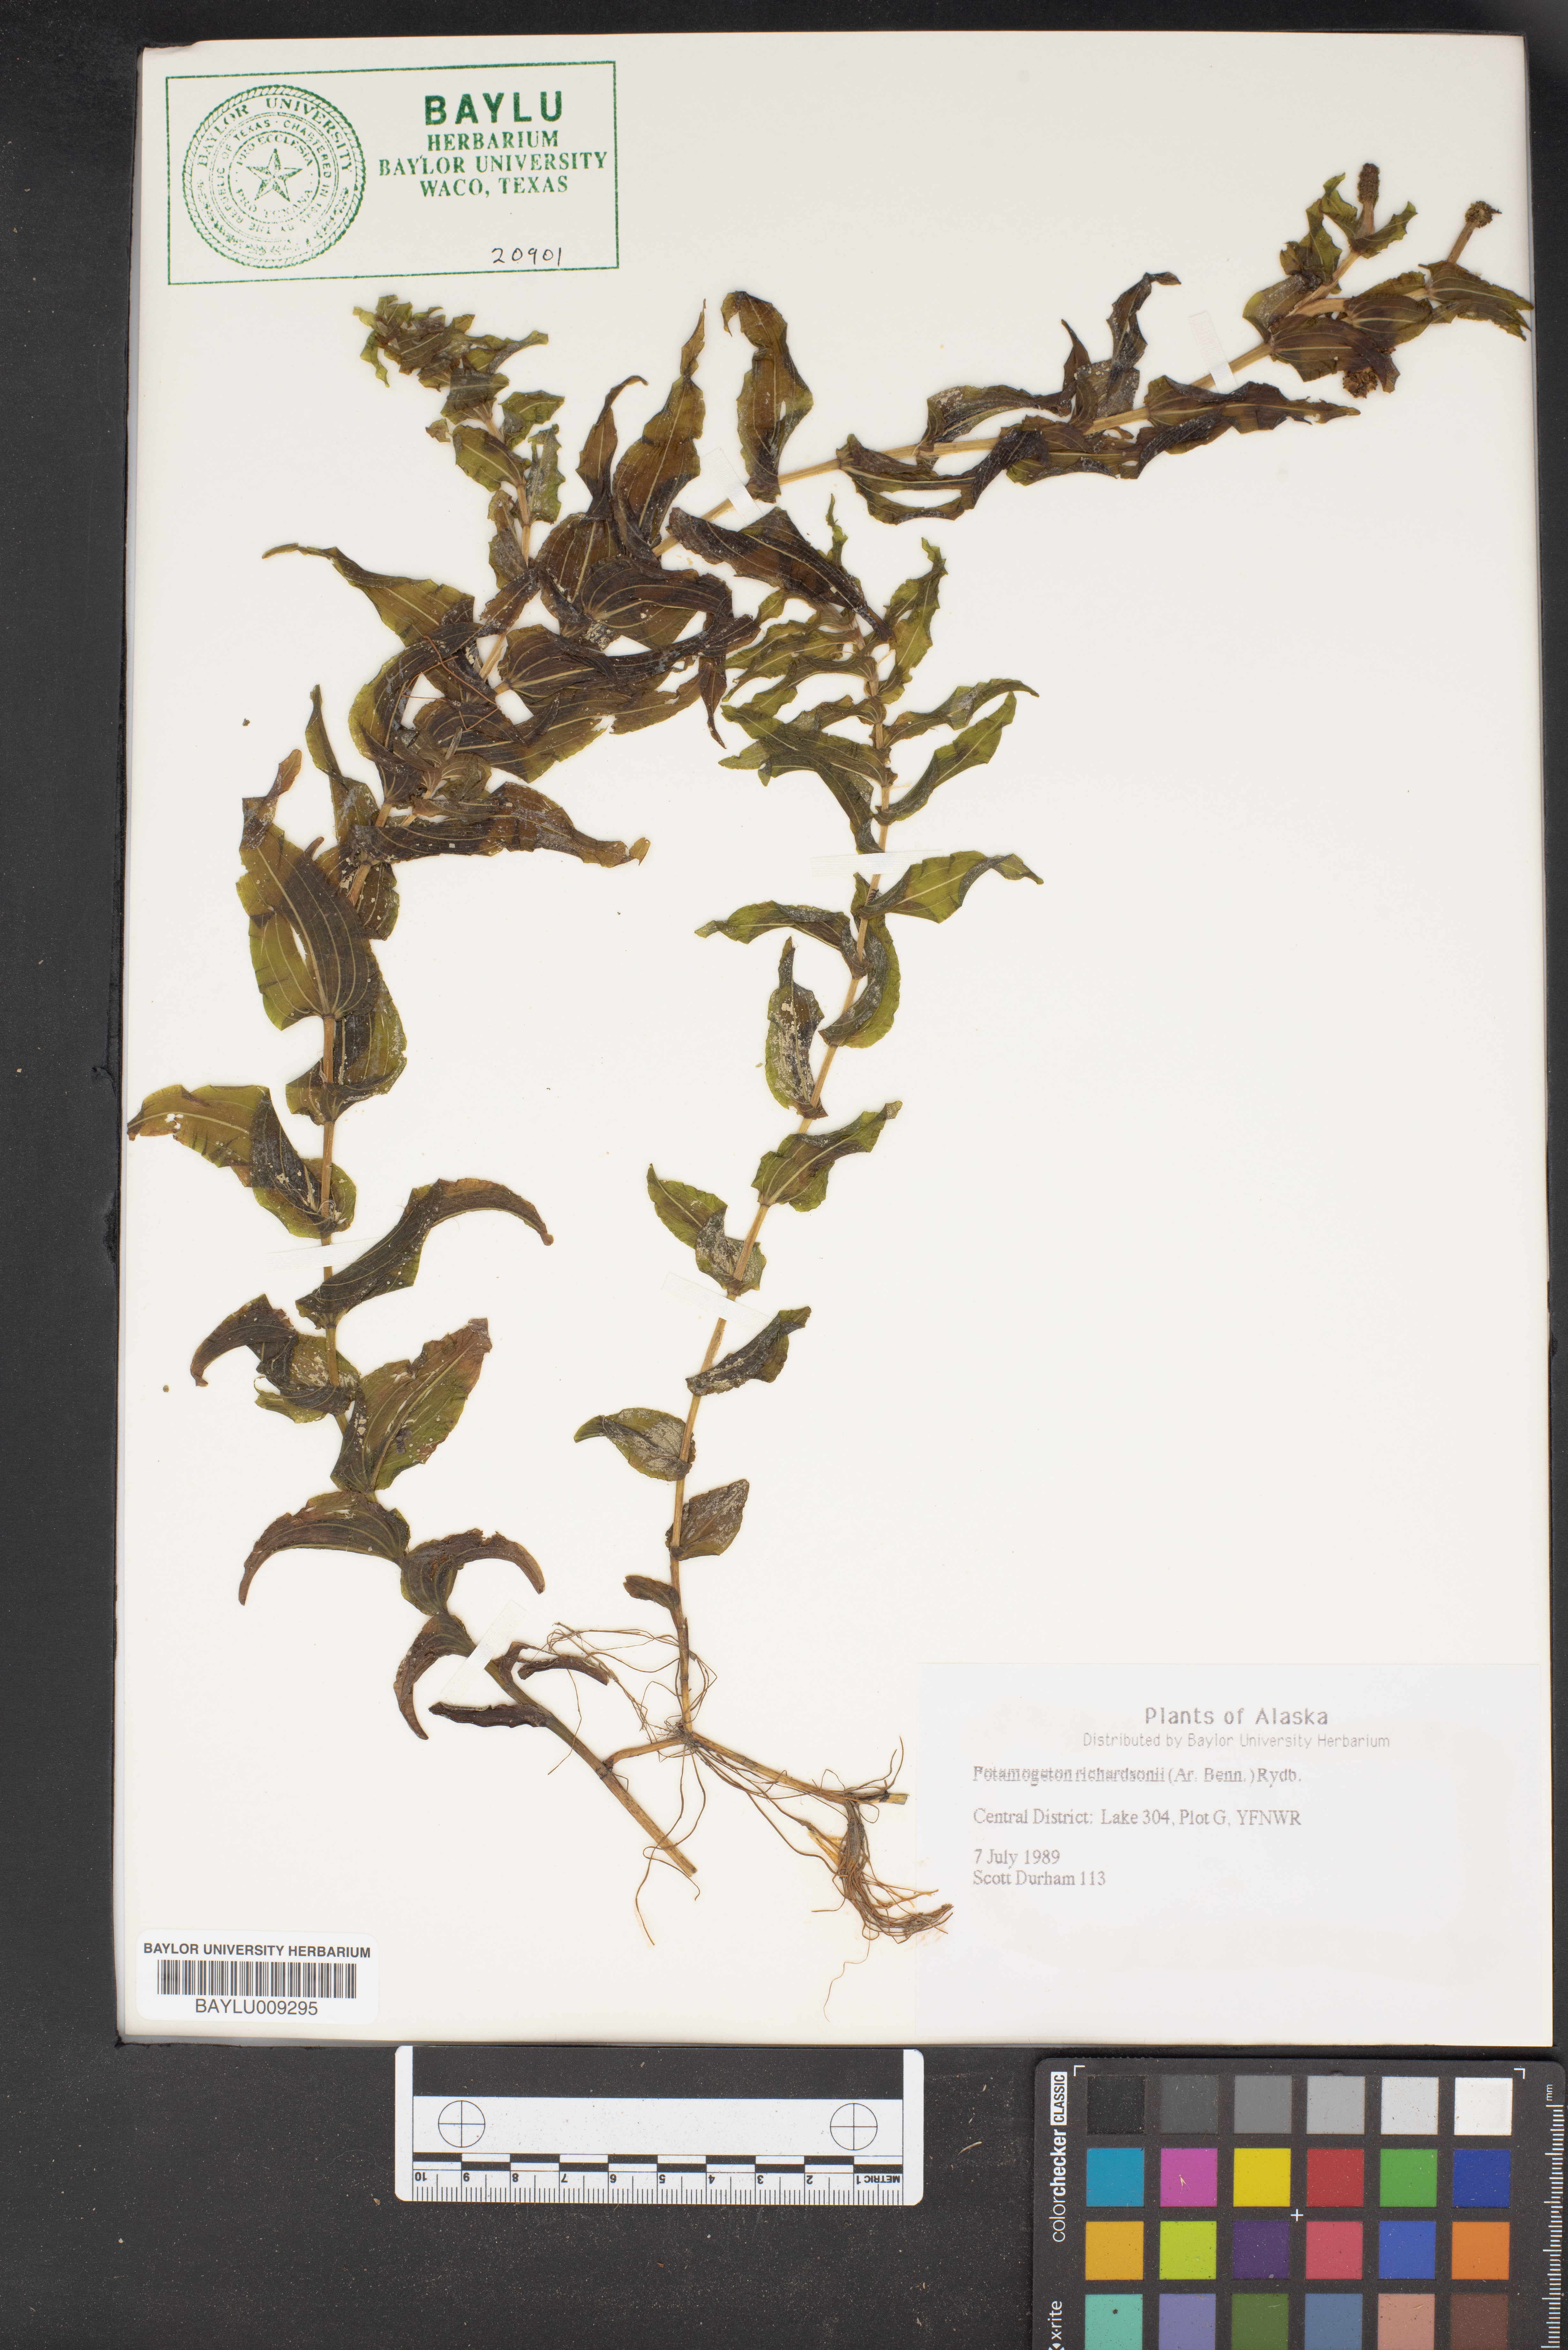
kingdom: Plantae
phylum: Tracheophyta
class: Liliopsida
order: Alismatales
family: Potamogetonaceae
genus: Potamogeton
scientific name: Potamogeton richardsonii
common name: Richardson's pondweed
